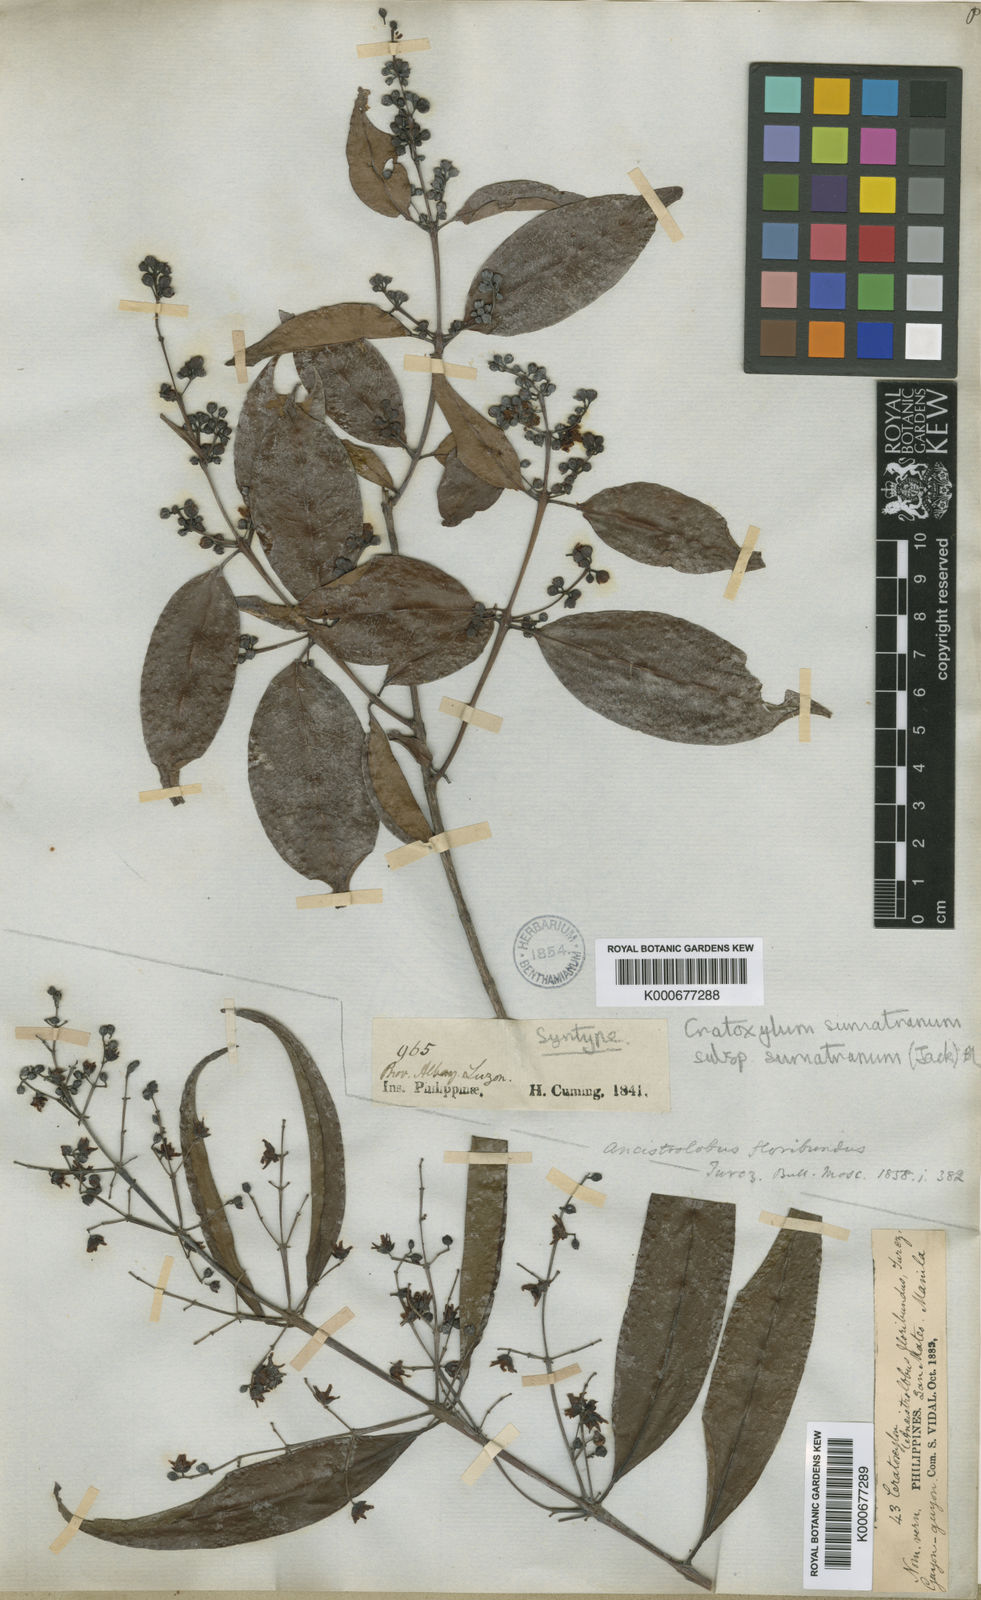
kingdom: Plantae
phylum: Tracheophyta
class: Magnoliopsida
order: Malpighiales
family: Hypericaceae
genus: Cratoxylum
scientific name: Cratoxylum sumatranum
